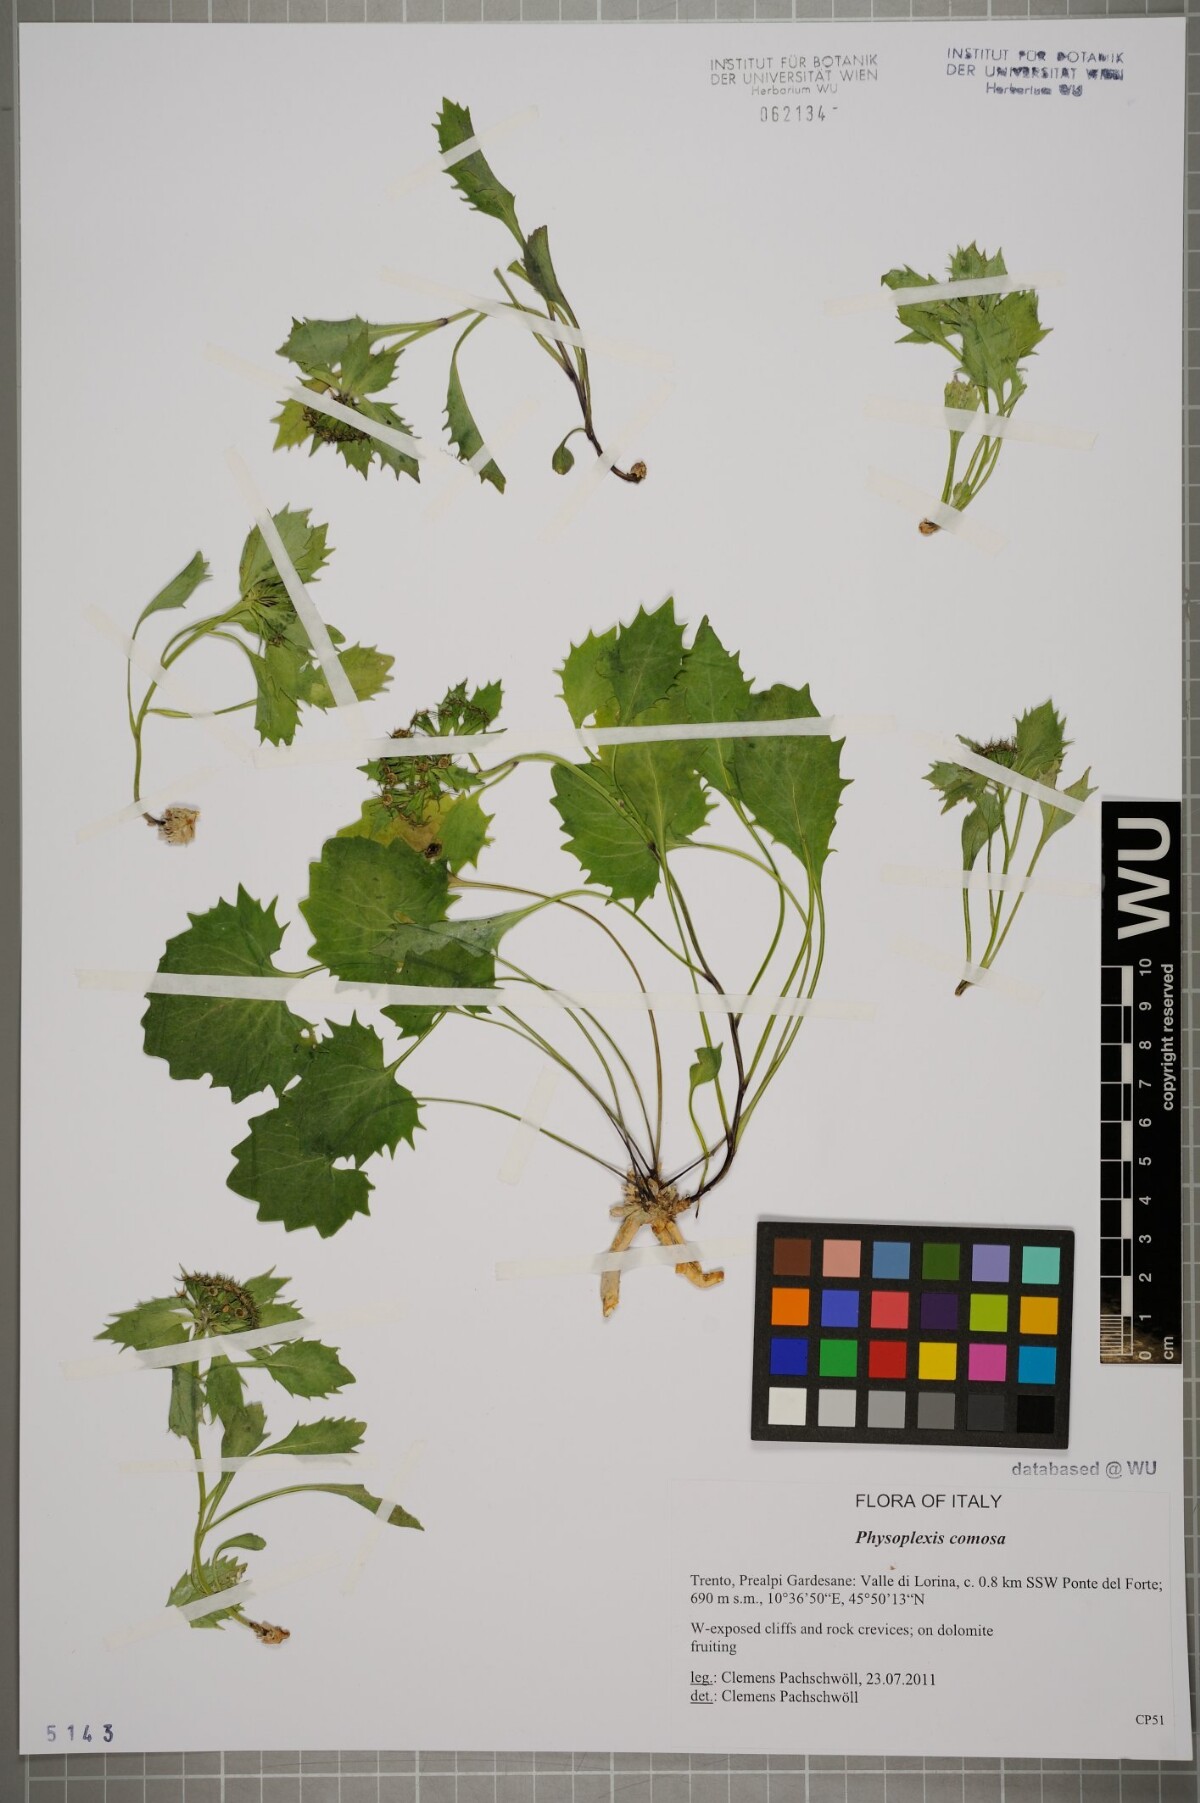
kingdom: Plantae
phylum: Tracheophyta
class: Magnoliopsida
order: Asterales
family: Campanulaceae
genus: Physoplexis
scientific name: Physoplexis comosa
